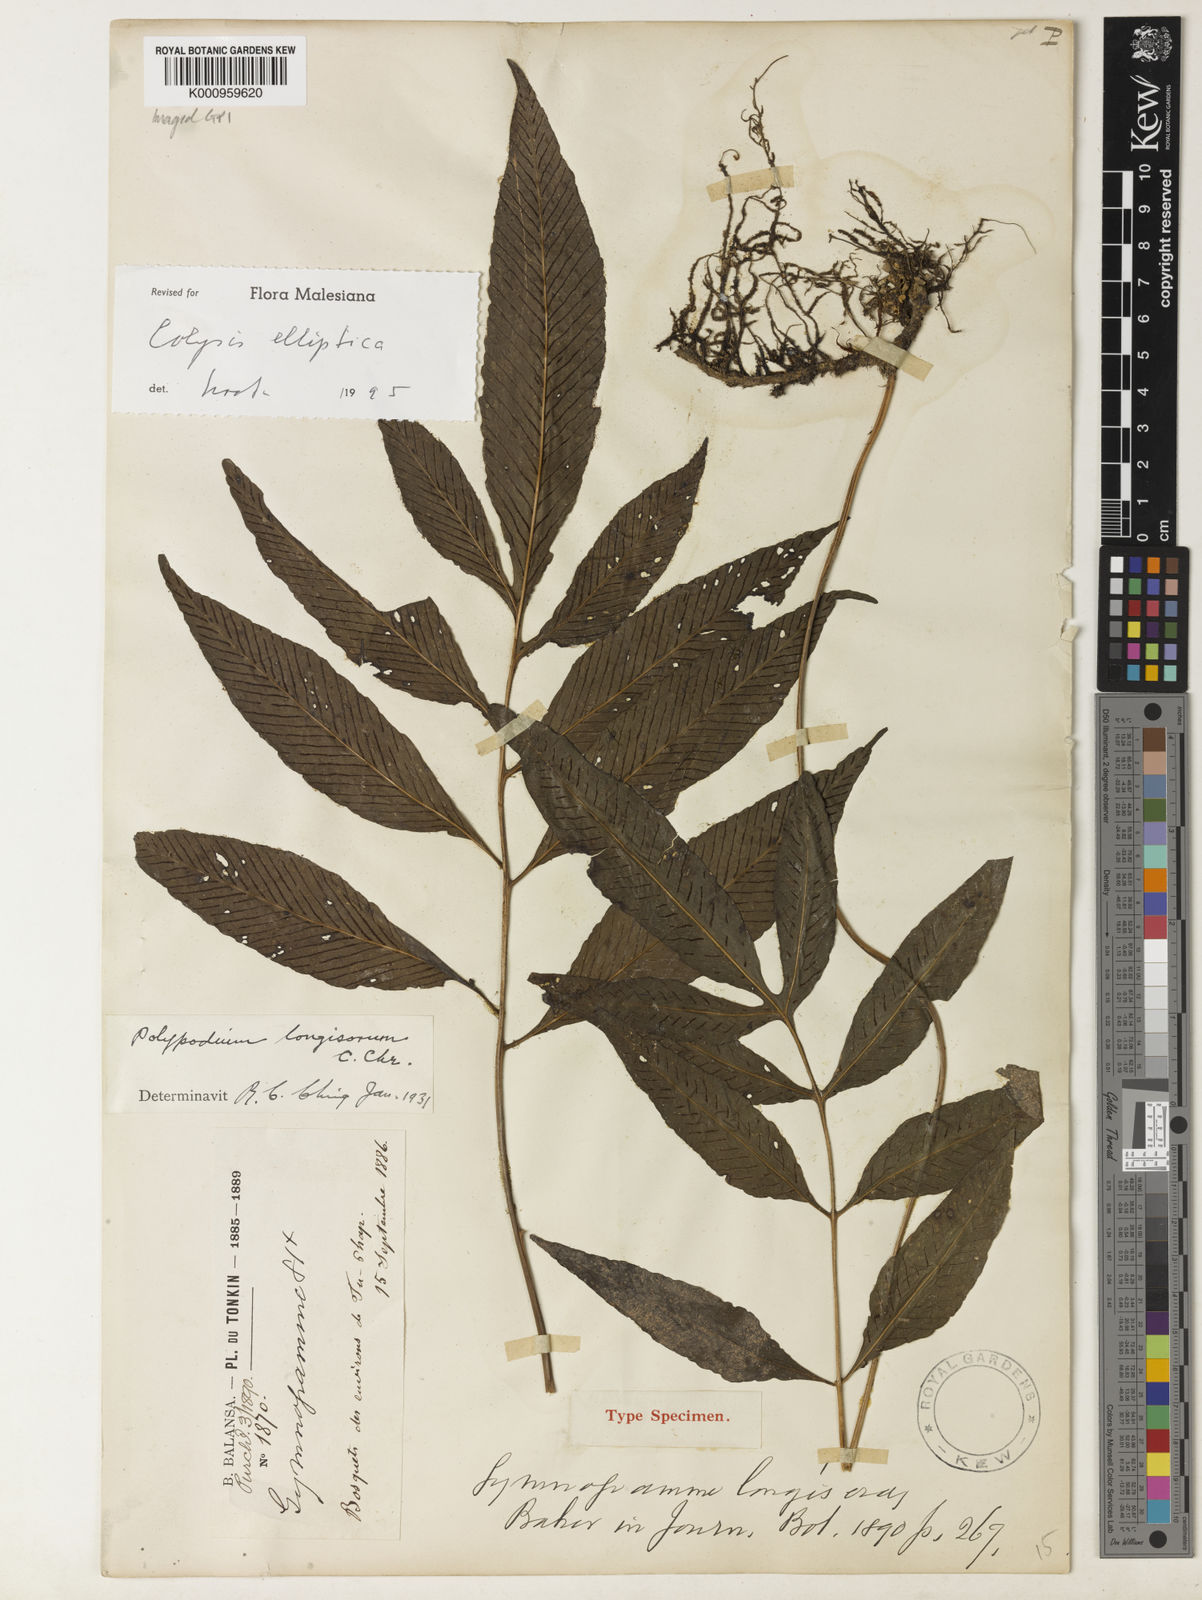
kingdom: Plantae
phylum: Tracheophyta
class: Polypodiopsida
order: Polypodiales
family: Polypodiaceae
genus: Leptochilus
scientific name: Leptochilus ellipticus
